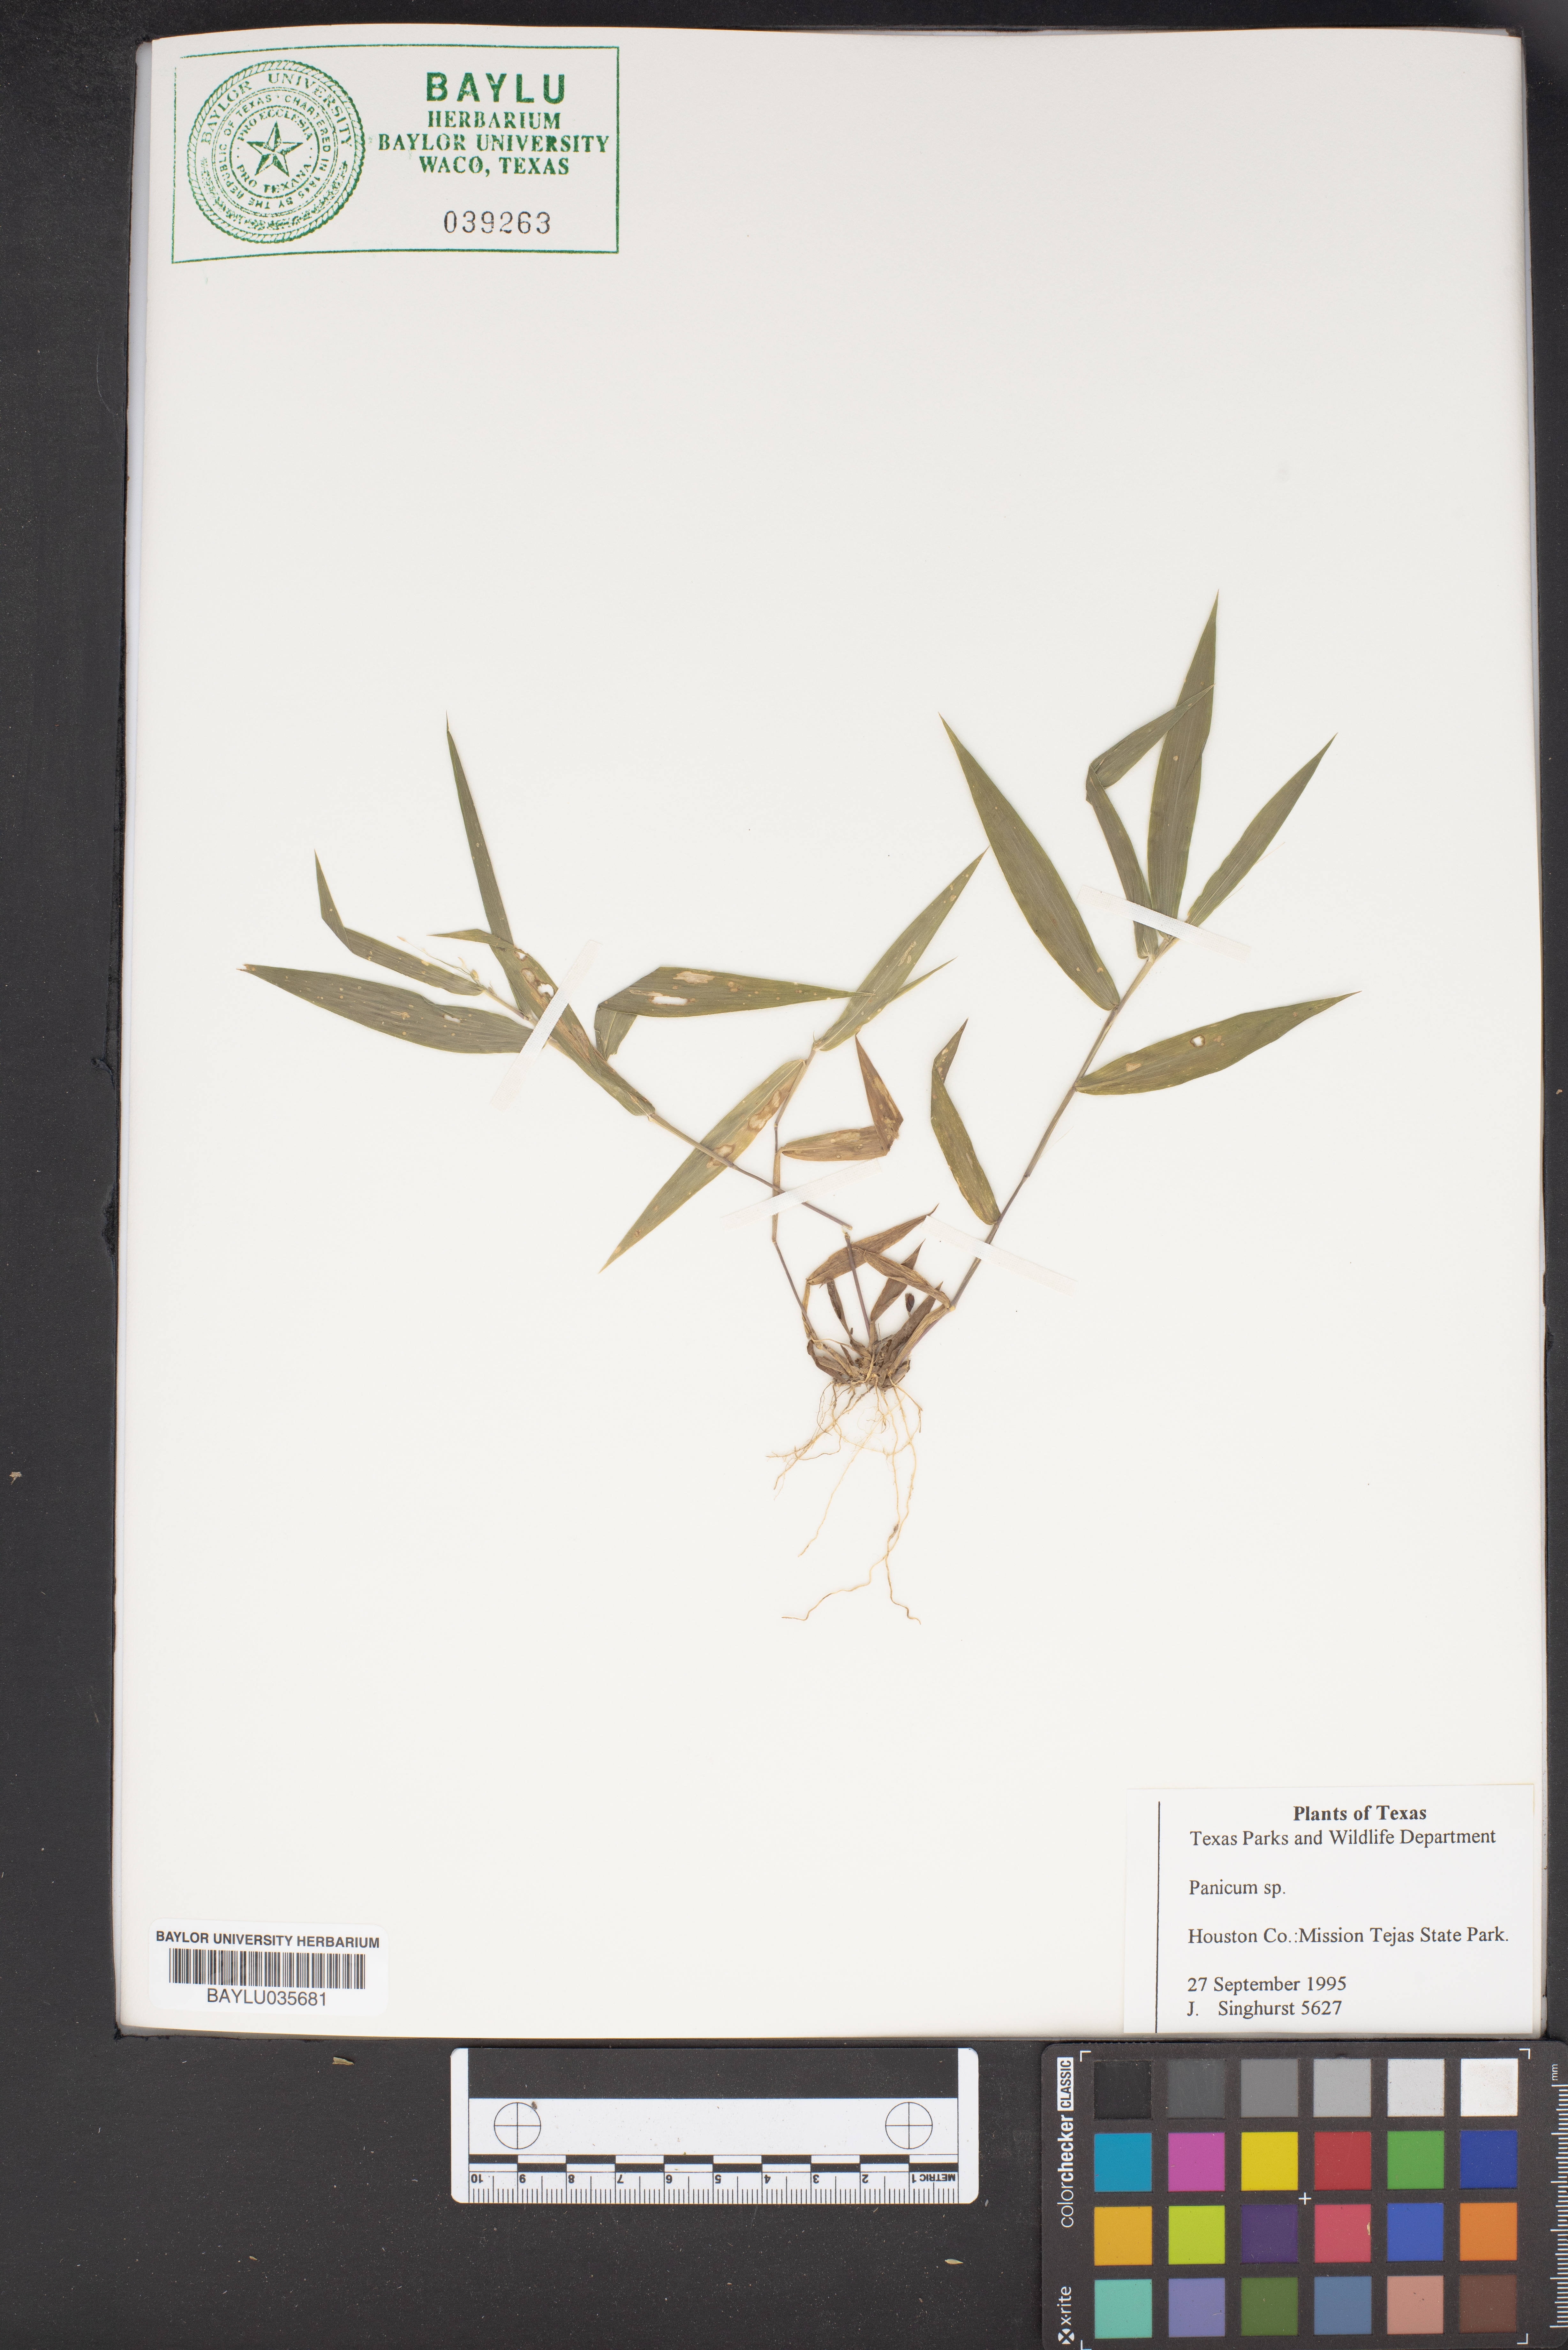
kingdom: Plantae
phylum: Tracheophyta
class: Liliopsida
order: Poales
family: Poaceae
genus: Panicum
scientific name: Panicum
